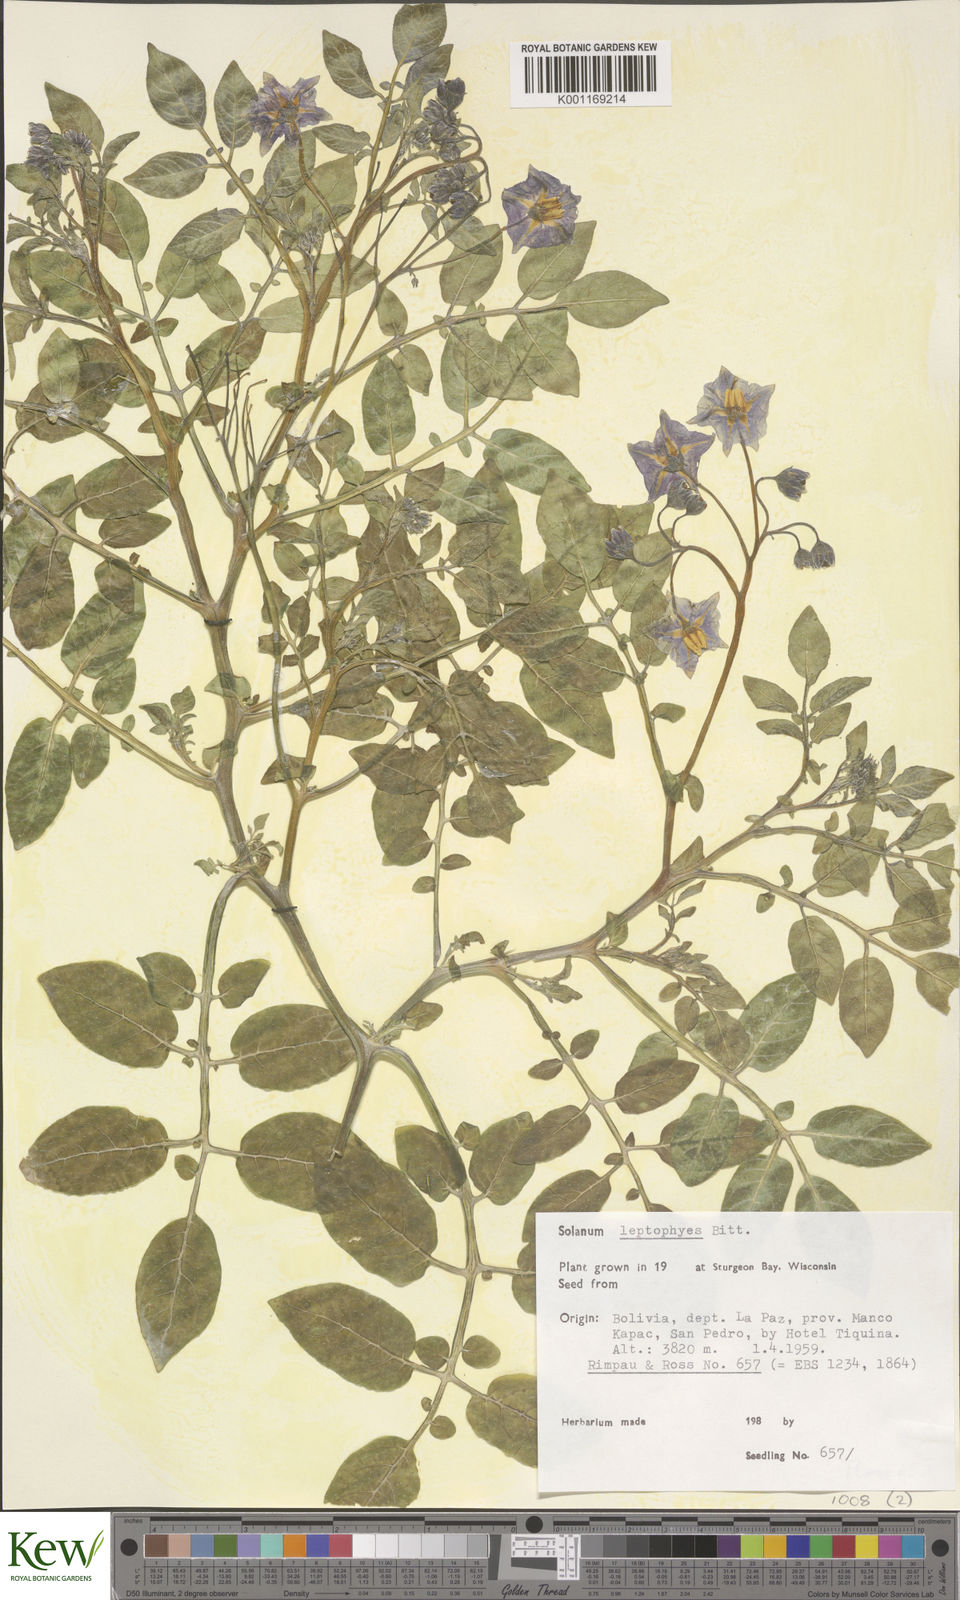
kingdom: Plantae
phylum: Tracheophyta
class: Magnoliopsida
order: Solanales
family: Solanaceae
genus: Solanum
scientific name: Solanum brevicaule
